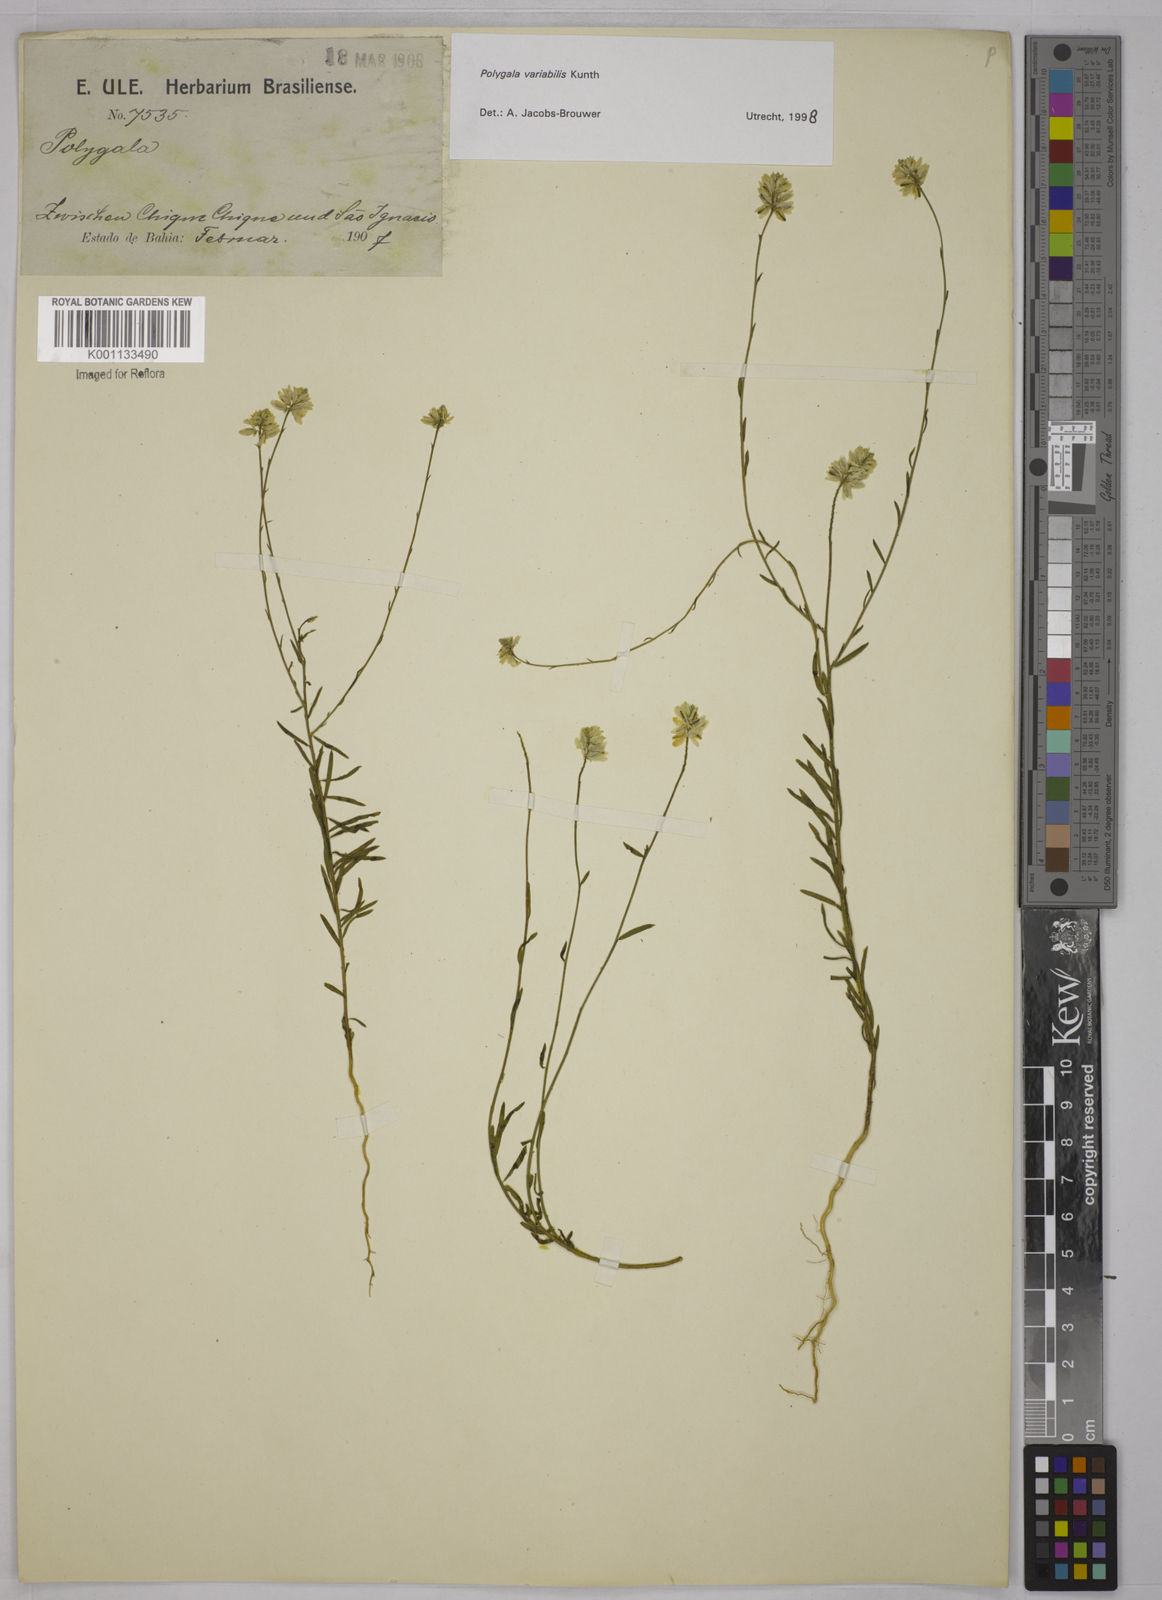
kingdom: Plantae
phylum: Tracheophyta
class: Magnoliopsida
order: Fabales
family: Polygalaceae
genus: Polygala
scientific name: Polygala trichosperma
